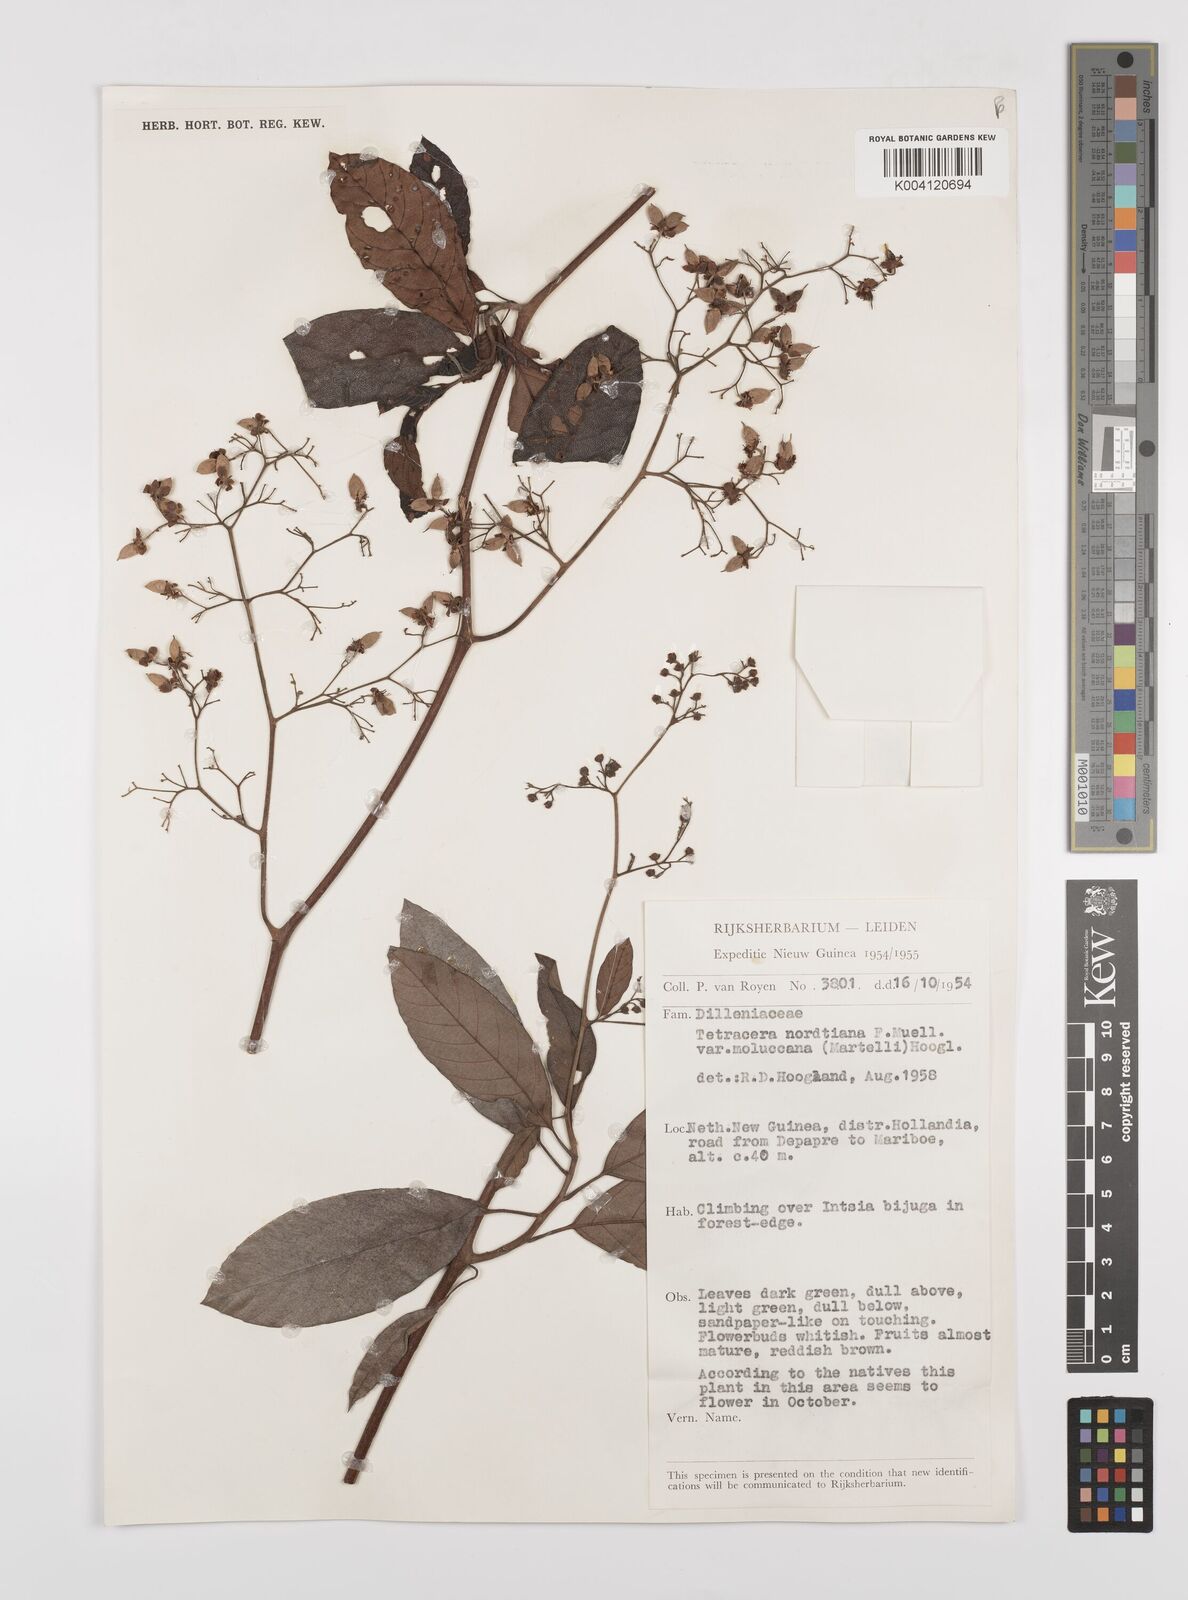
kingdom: Plantae
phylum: Tracheophyta
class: Magnoliopsida
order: Dilleniales
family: Dilleniaceae
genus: Tetracera
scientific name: Tetracera nordtiana
